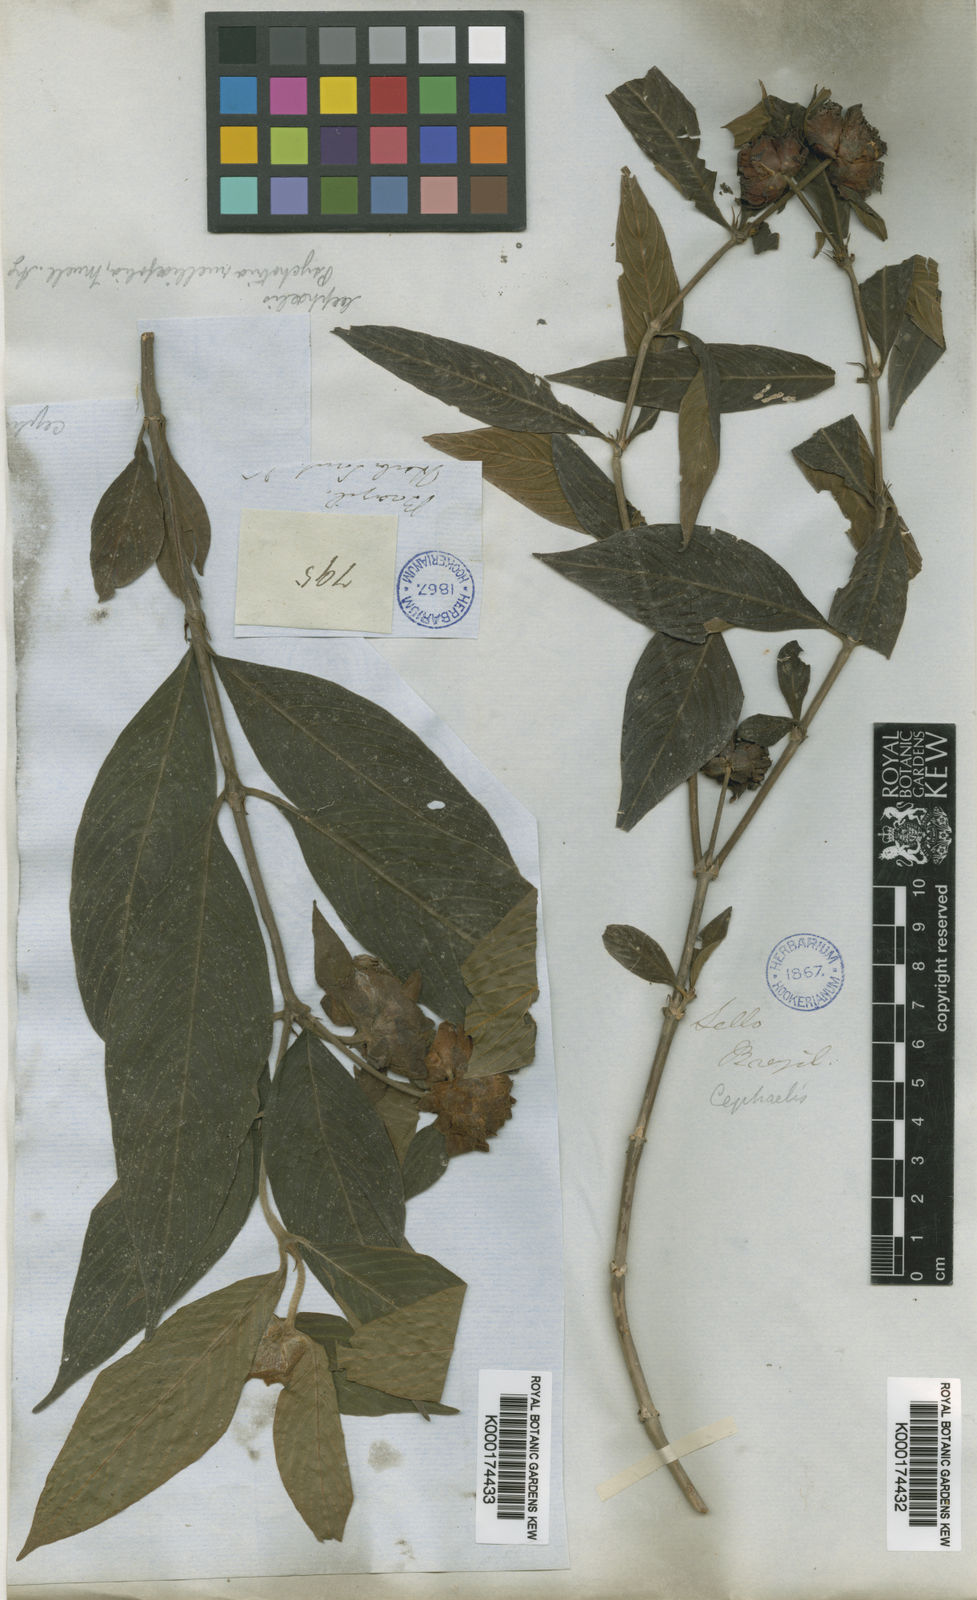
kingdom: Plantae
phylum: Tracheophyta
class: Magnoliopsida
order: Gentianales
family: Rubiaceae
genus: Psychotria
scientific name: Psychotria
